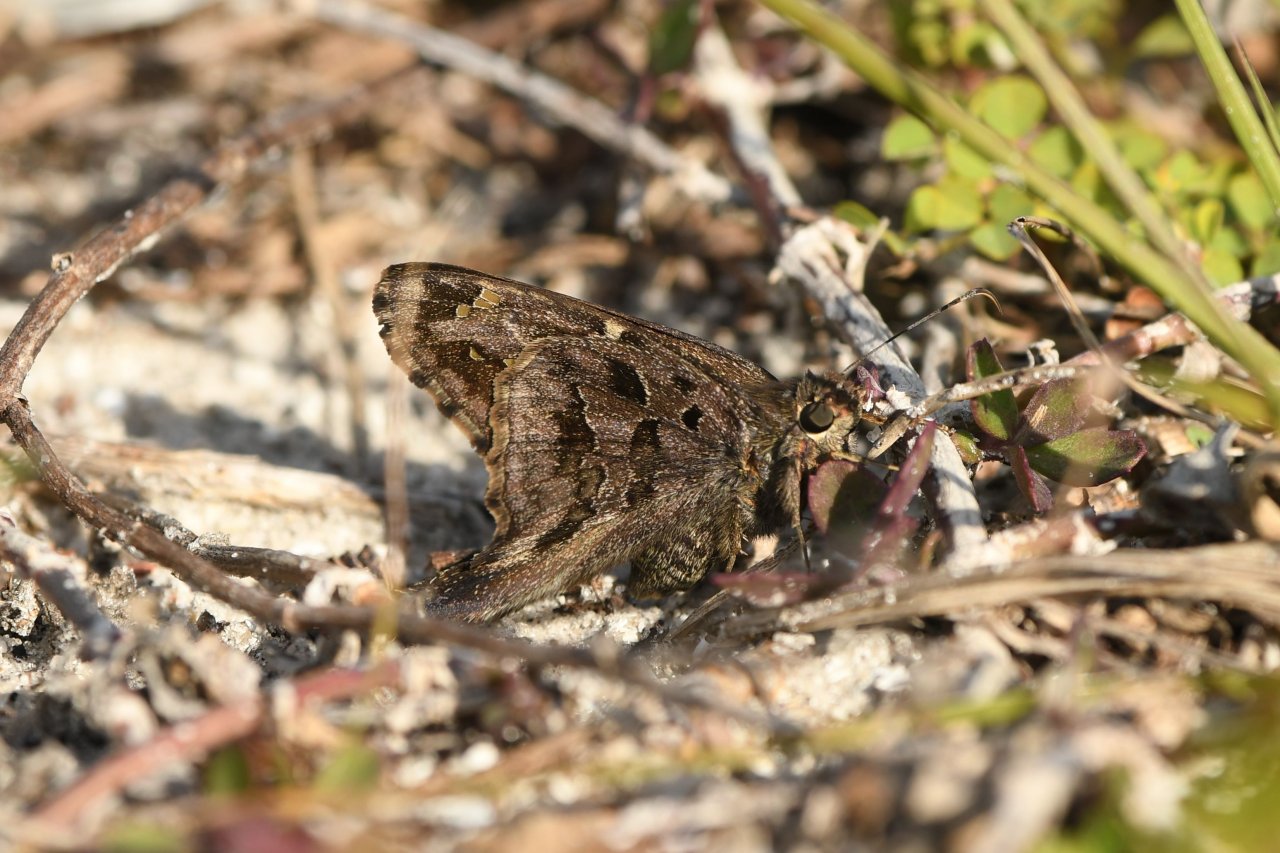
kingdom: Animalia
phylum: Arthropoda
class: Insecta
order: Lepidoptera
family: Hesperiidae
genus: Urbanus
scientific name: Urbanus dorantes
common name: Dorantes Longtail
